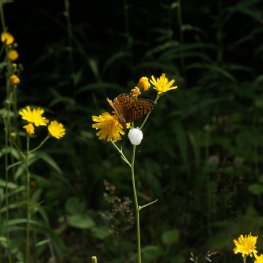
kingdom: Animalia
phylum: Arthropoda
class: Insecta
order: Lepidoptera
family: Nymphalidae
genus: Speyeria
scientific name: Speyeria atlantis
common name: Atlantis Fritillary
